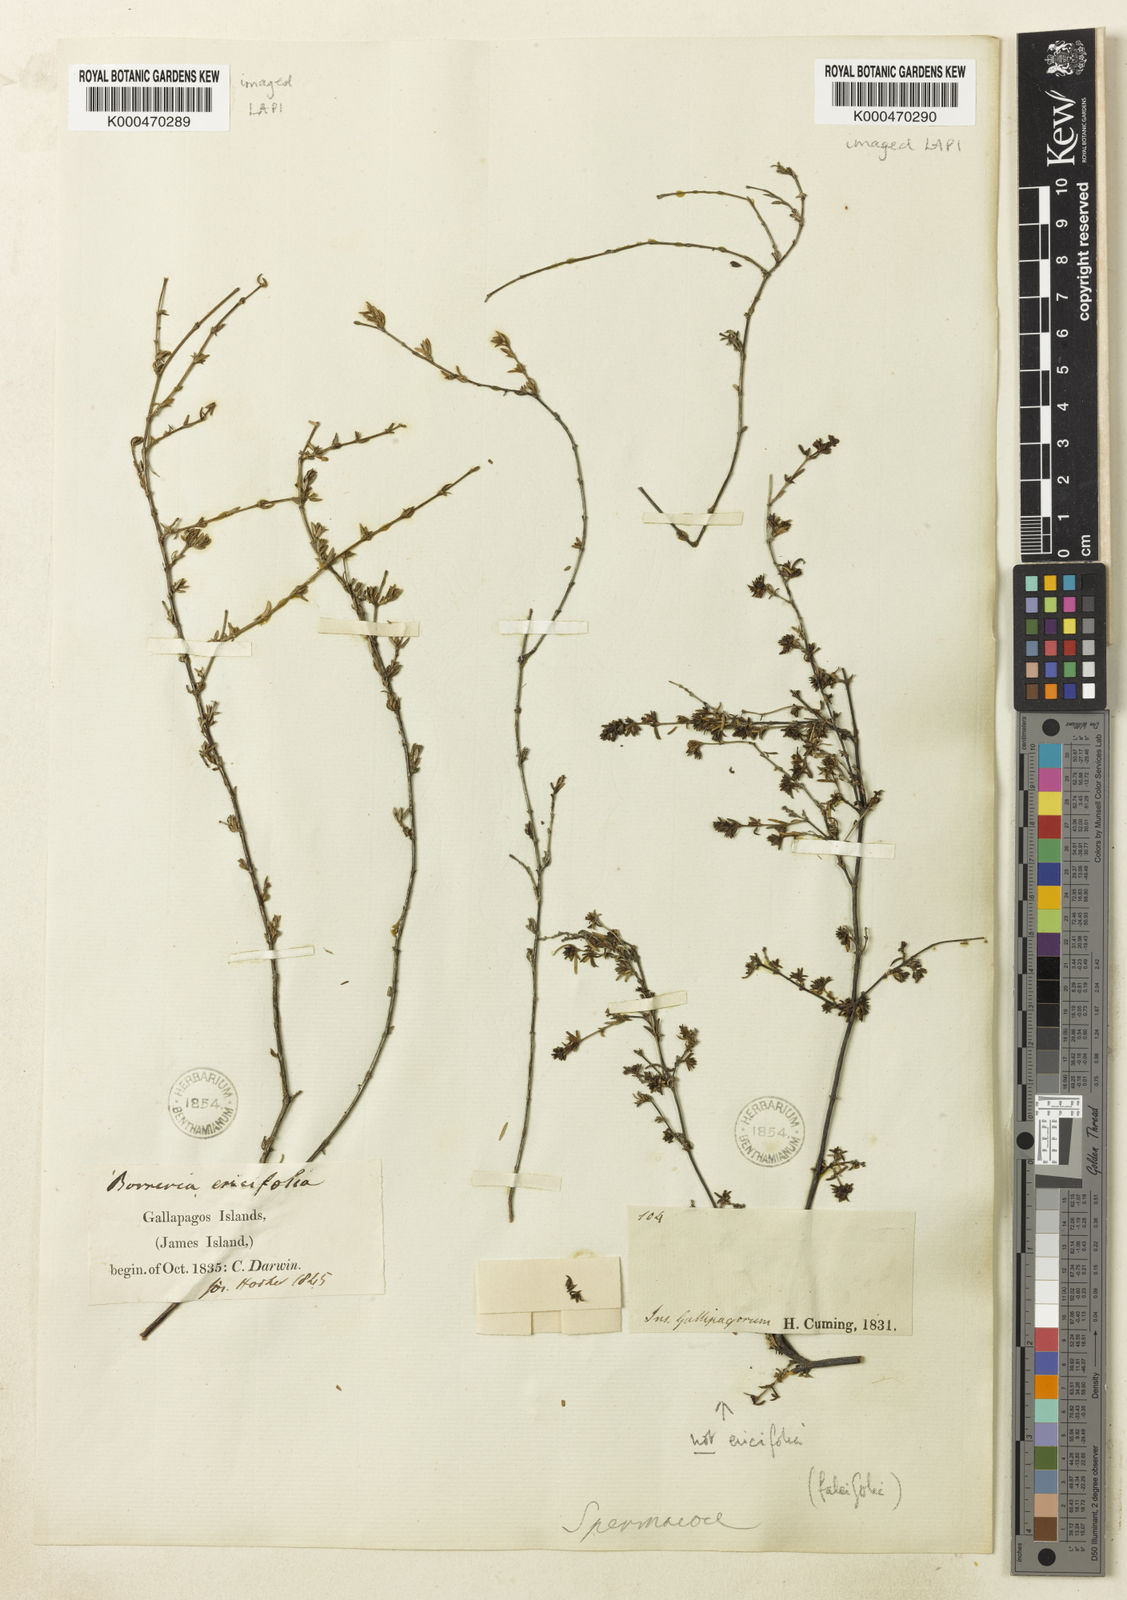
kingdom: Plantae
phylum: Tracheophyta
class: Magnoliopsida
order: Gentianales
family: Rubiaceae
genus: Spermacoce
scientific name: Spermacoce divaricata
